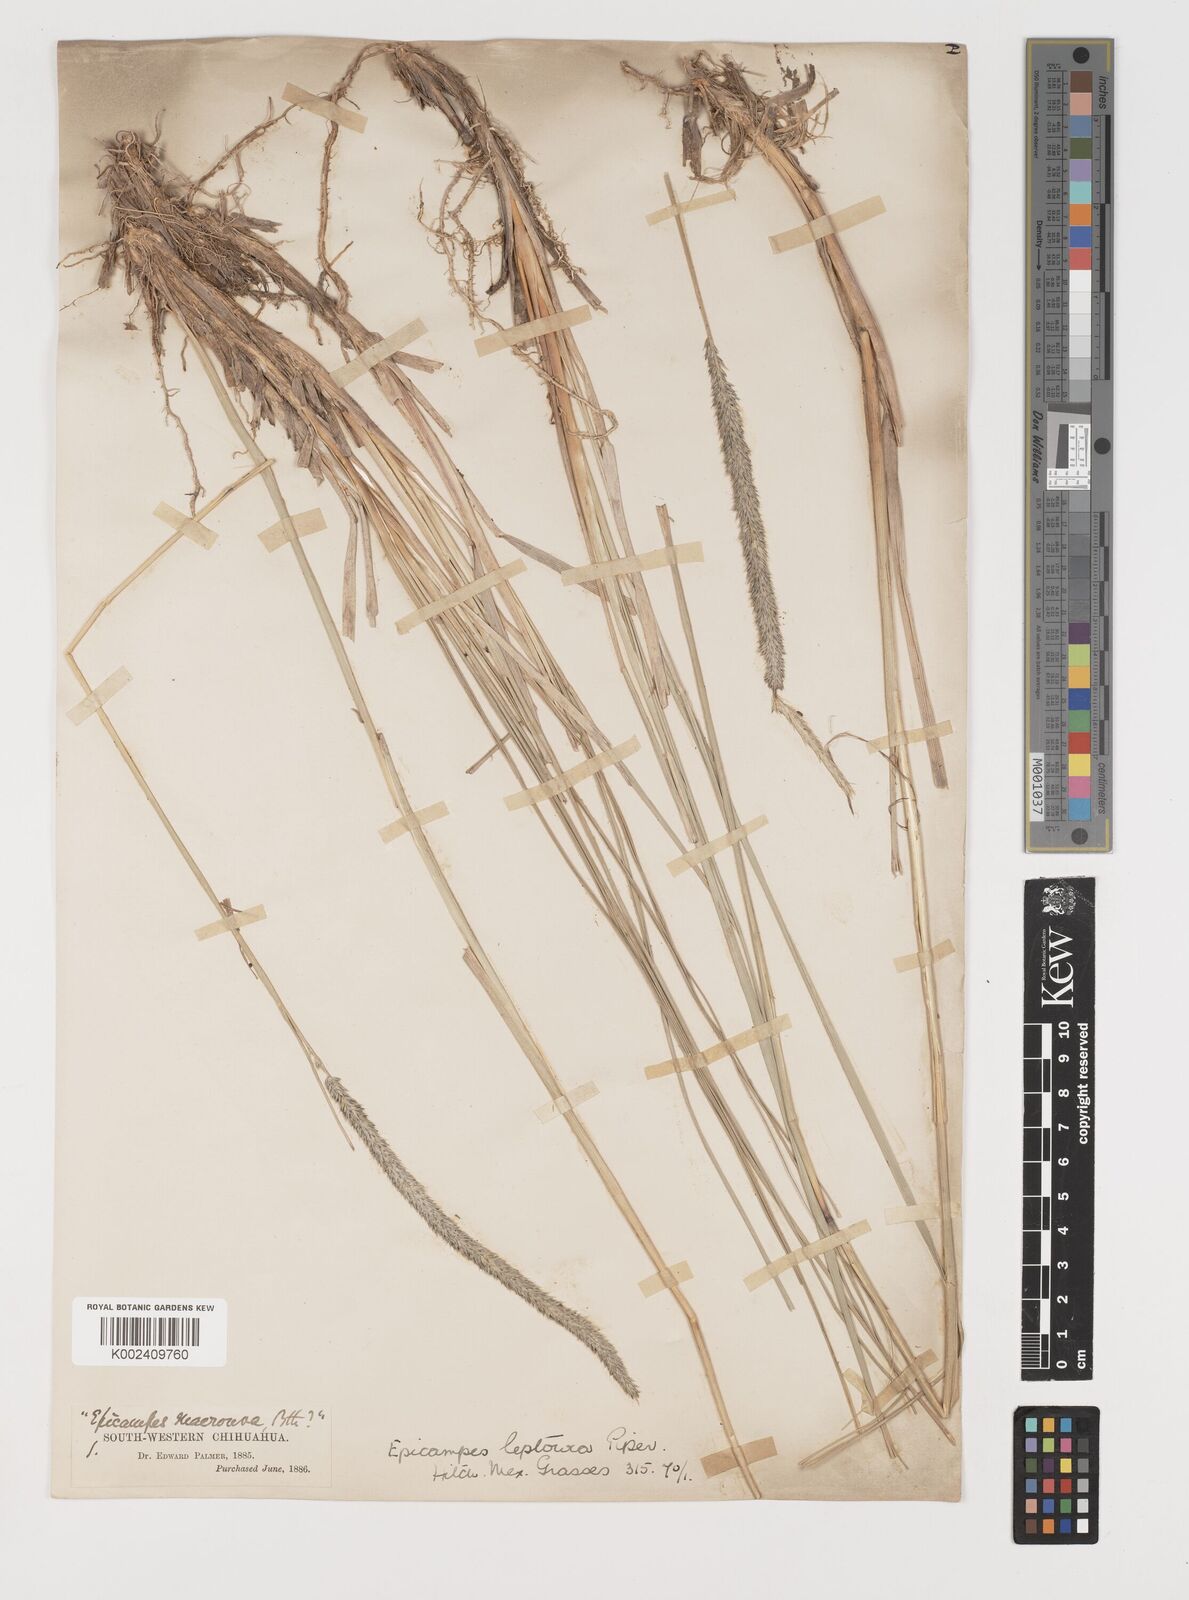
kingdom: Plantae
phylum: Tracheophyta
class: Liliopsida
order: Poales
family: Poaceae
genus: Muhlenbergia
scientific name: Muhlenbergia rigens
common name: Deer grass
